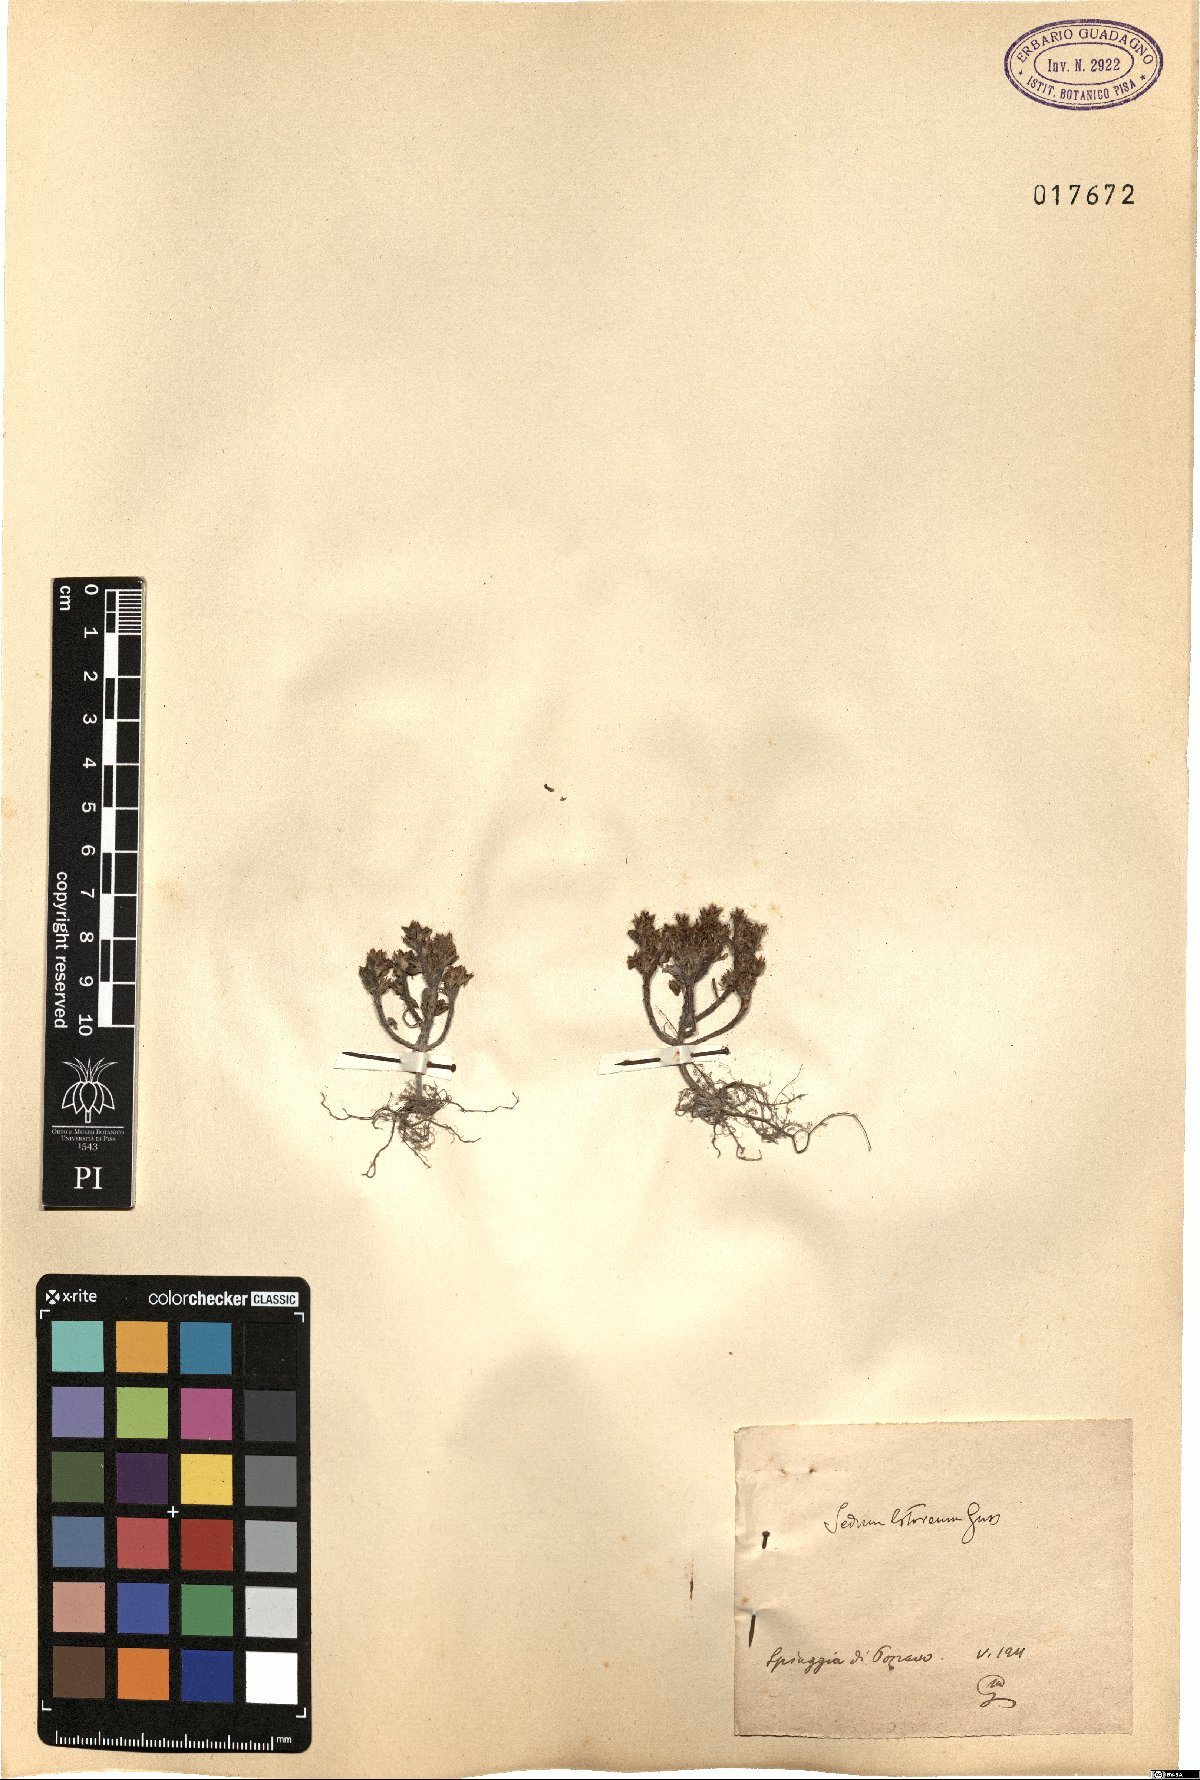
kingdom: Plantae
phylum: Tracheophyta
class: Magnoliopsida
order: Saxifragales
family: Crassulaceae
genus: Sedum
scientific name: Sedum litoreum
